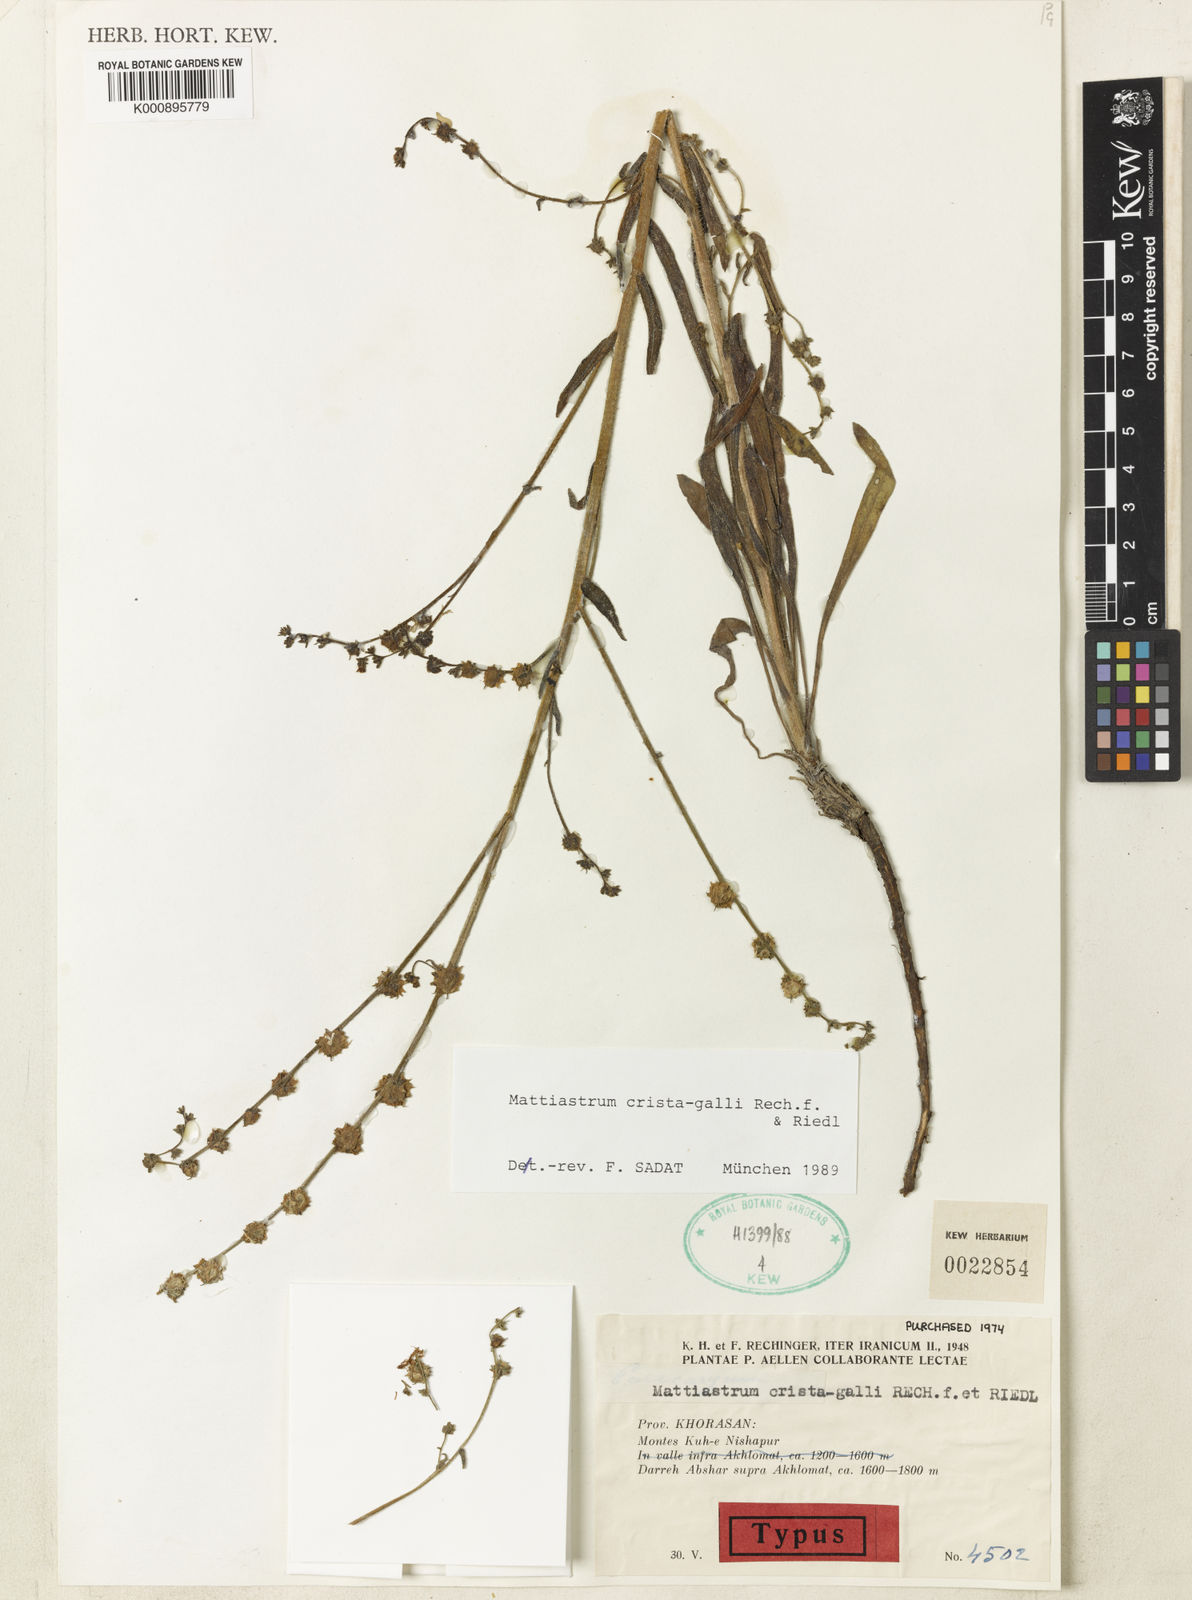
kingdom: Plantae
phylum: Tracheophyta
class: Magnoliopsida
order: Boraginales
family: Boraginaceae
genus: Paracaryum
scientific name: Paracaryum
